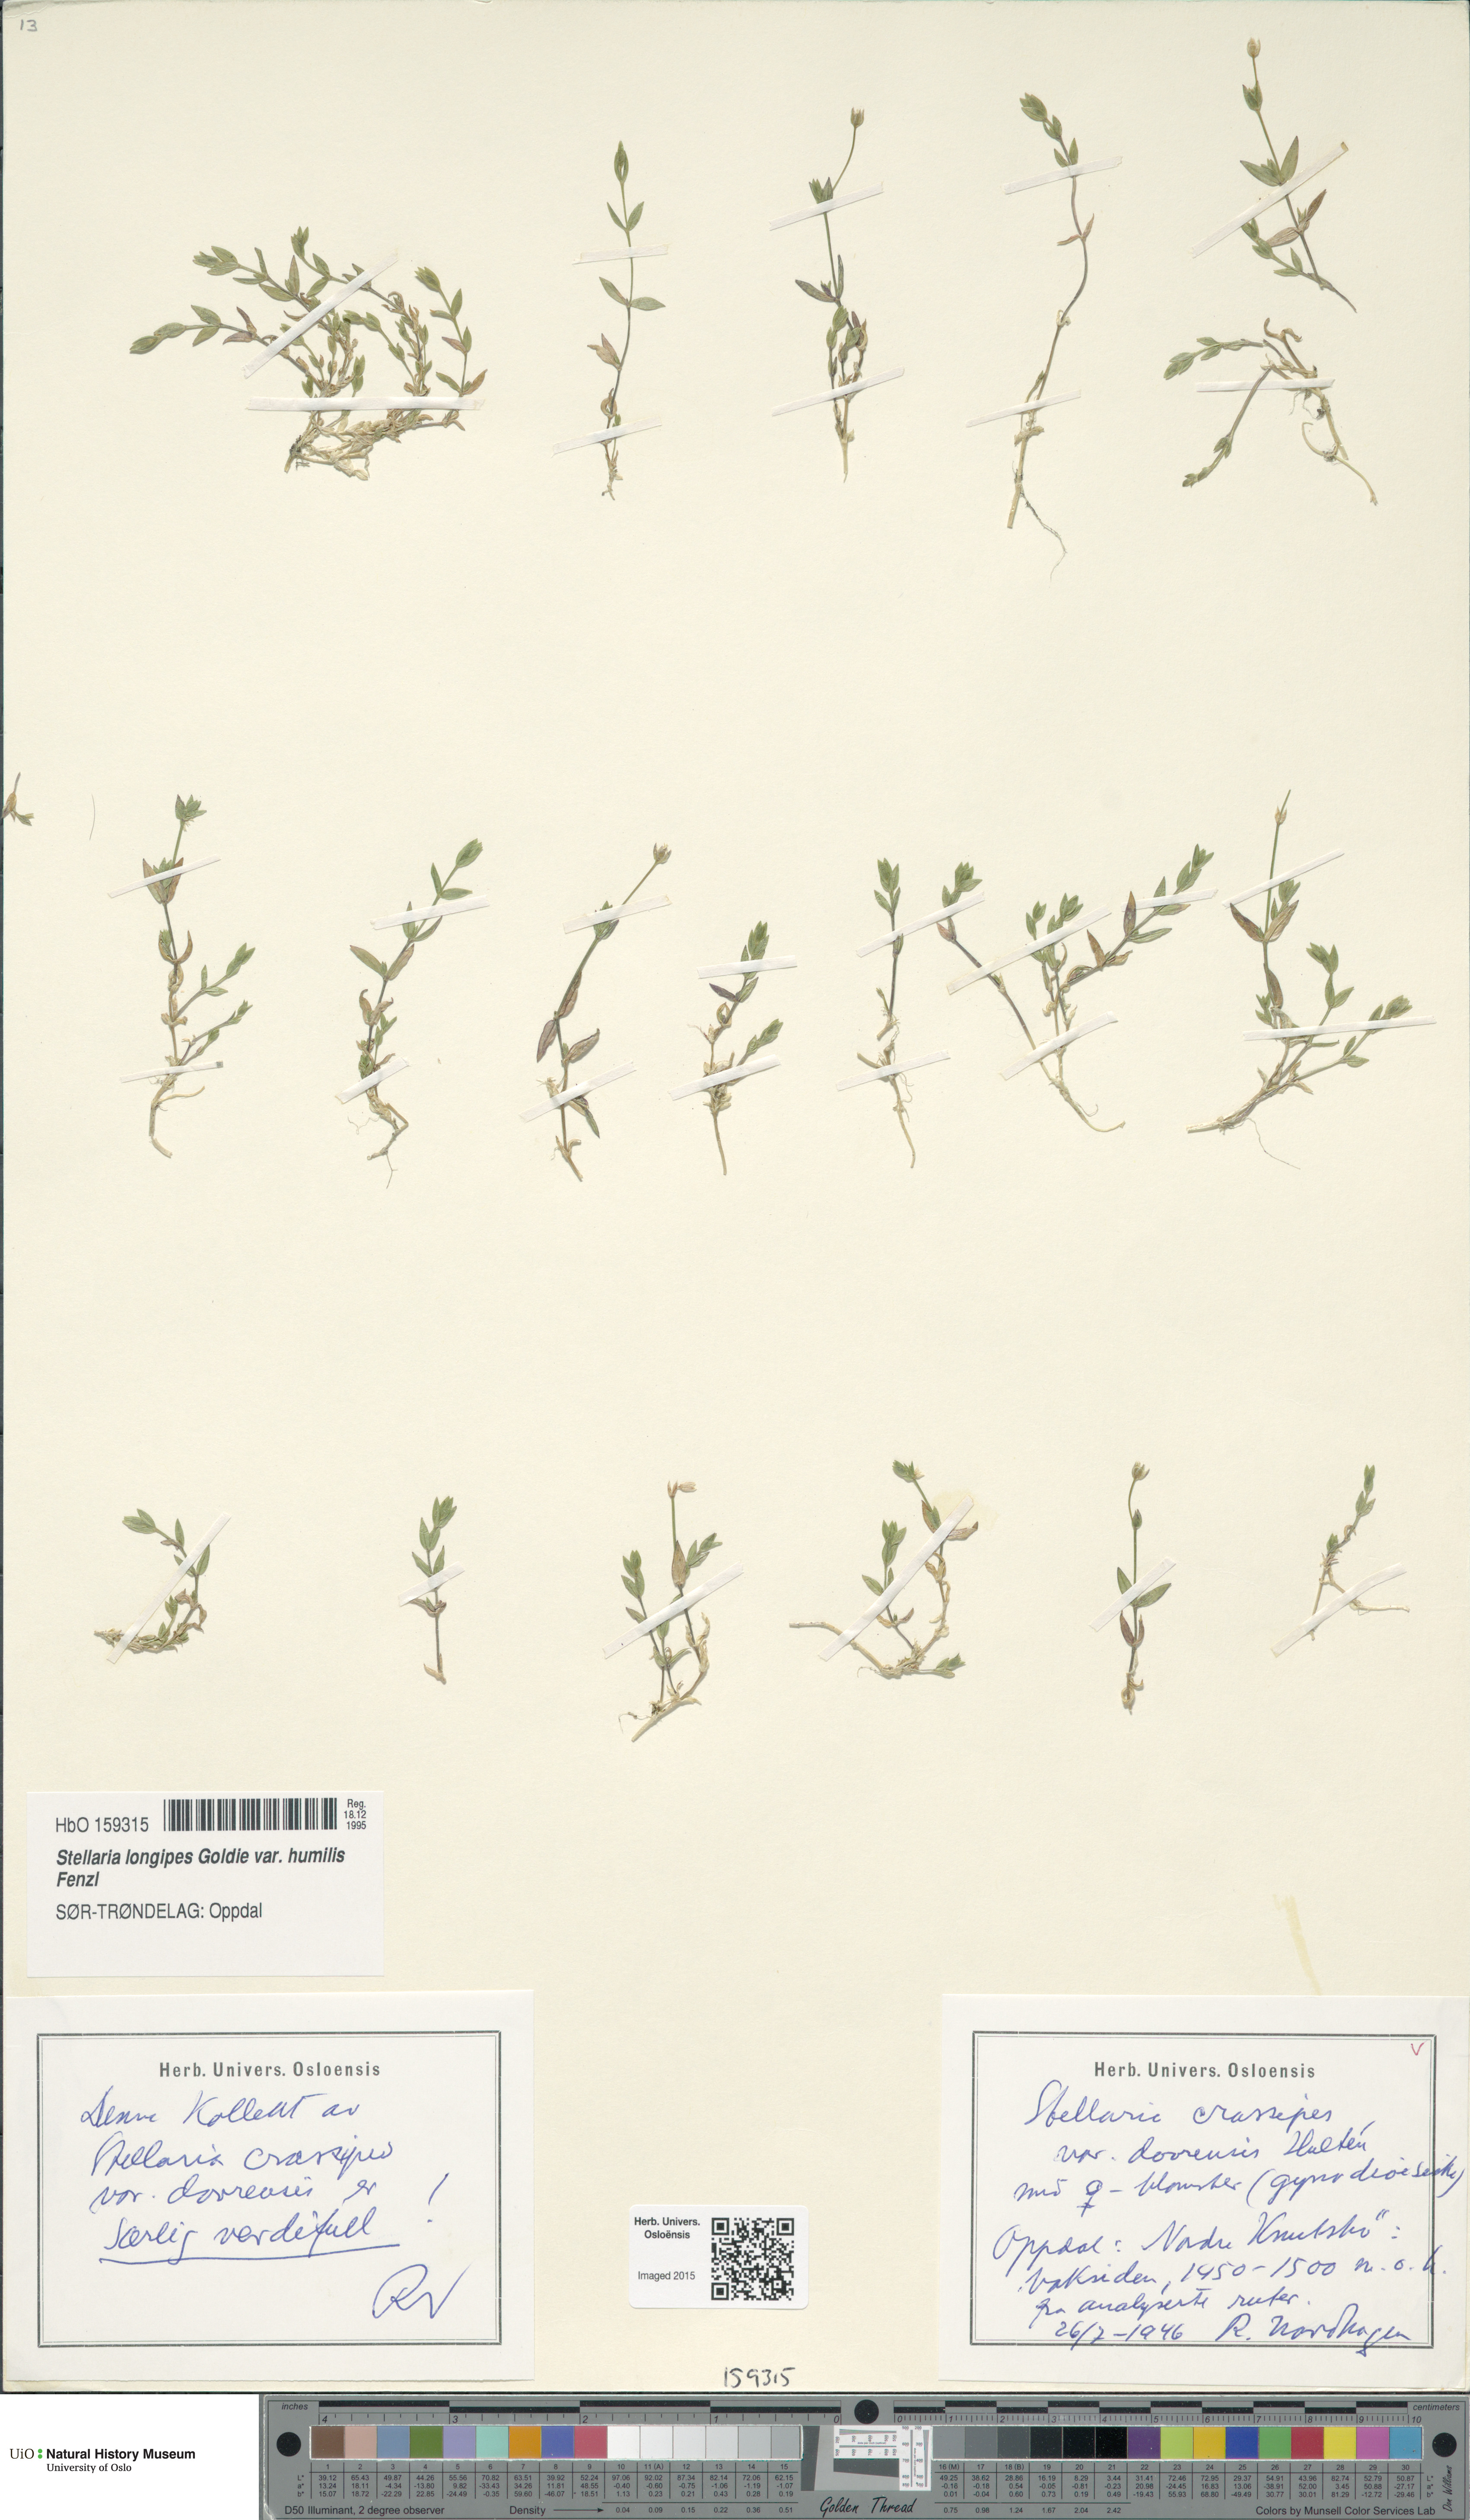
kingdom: Plantae
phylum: Tracheophyta
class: Magnoliopsida
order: Caryophyllales
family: Caryophyllaceae
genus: Stellaria
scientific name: Stellaria ruscifolia
